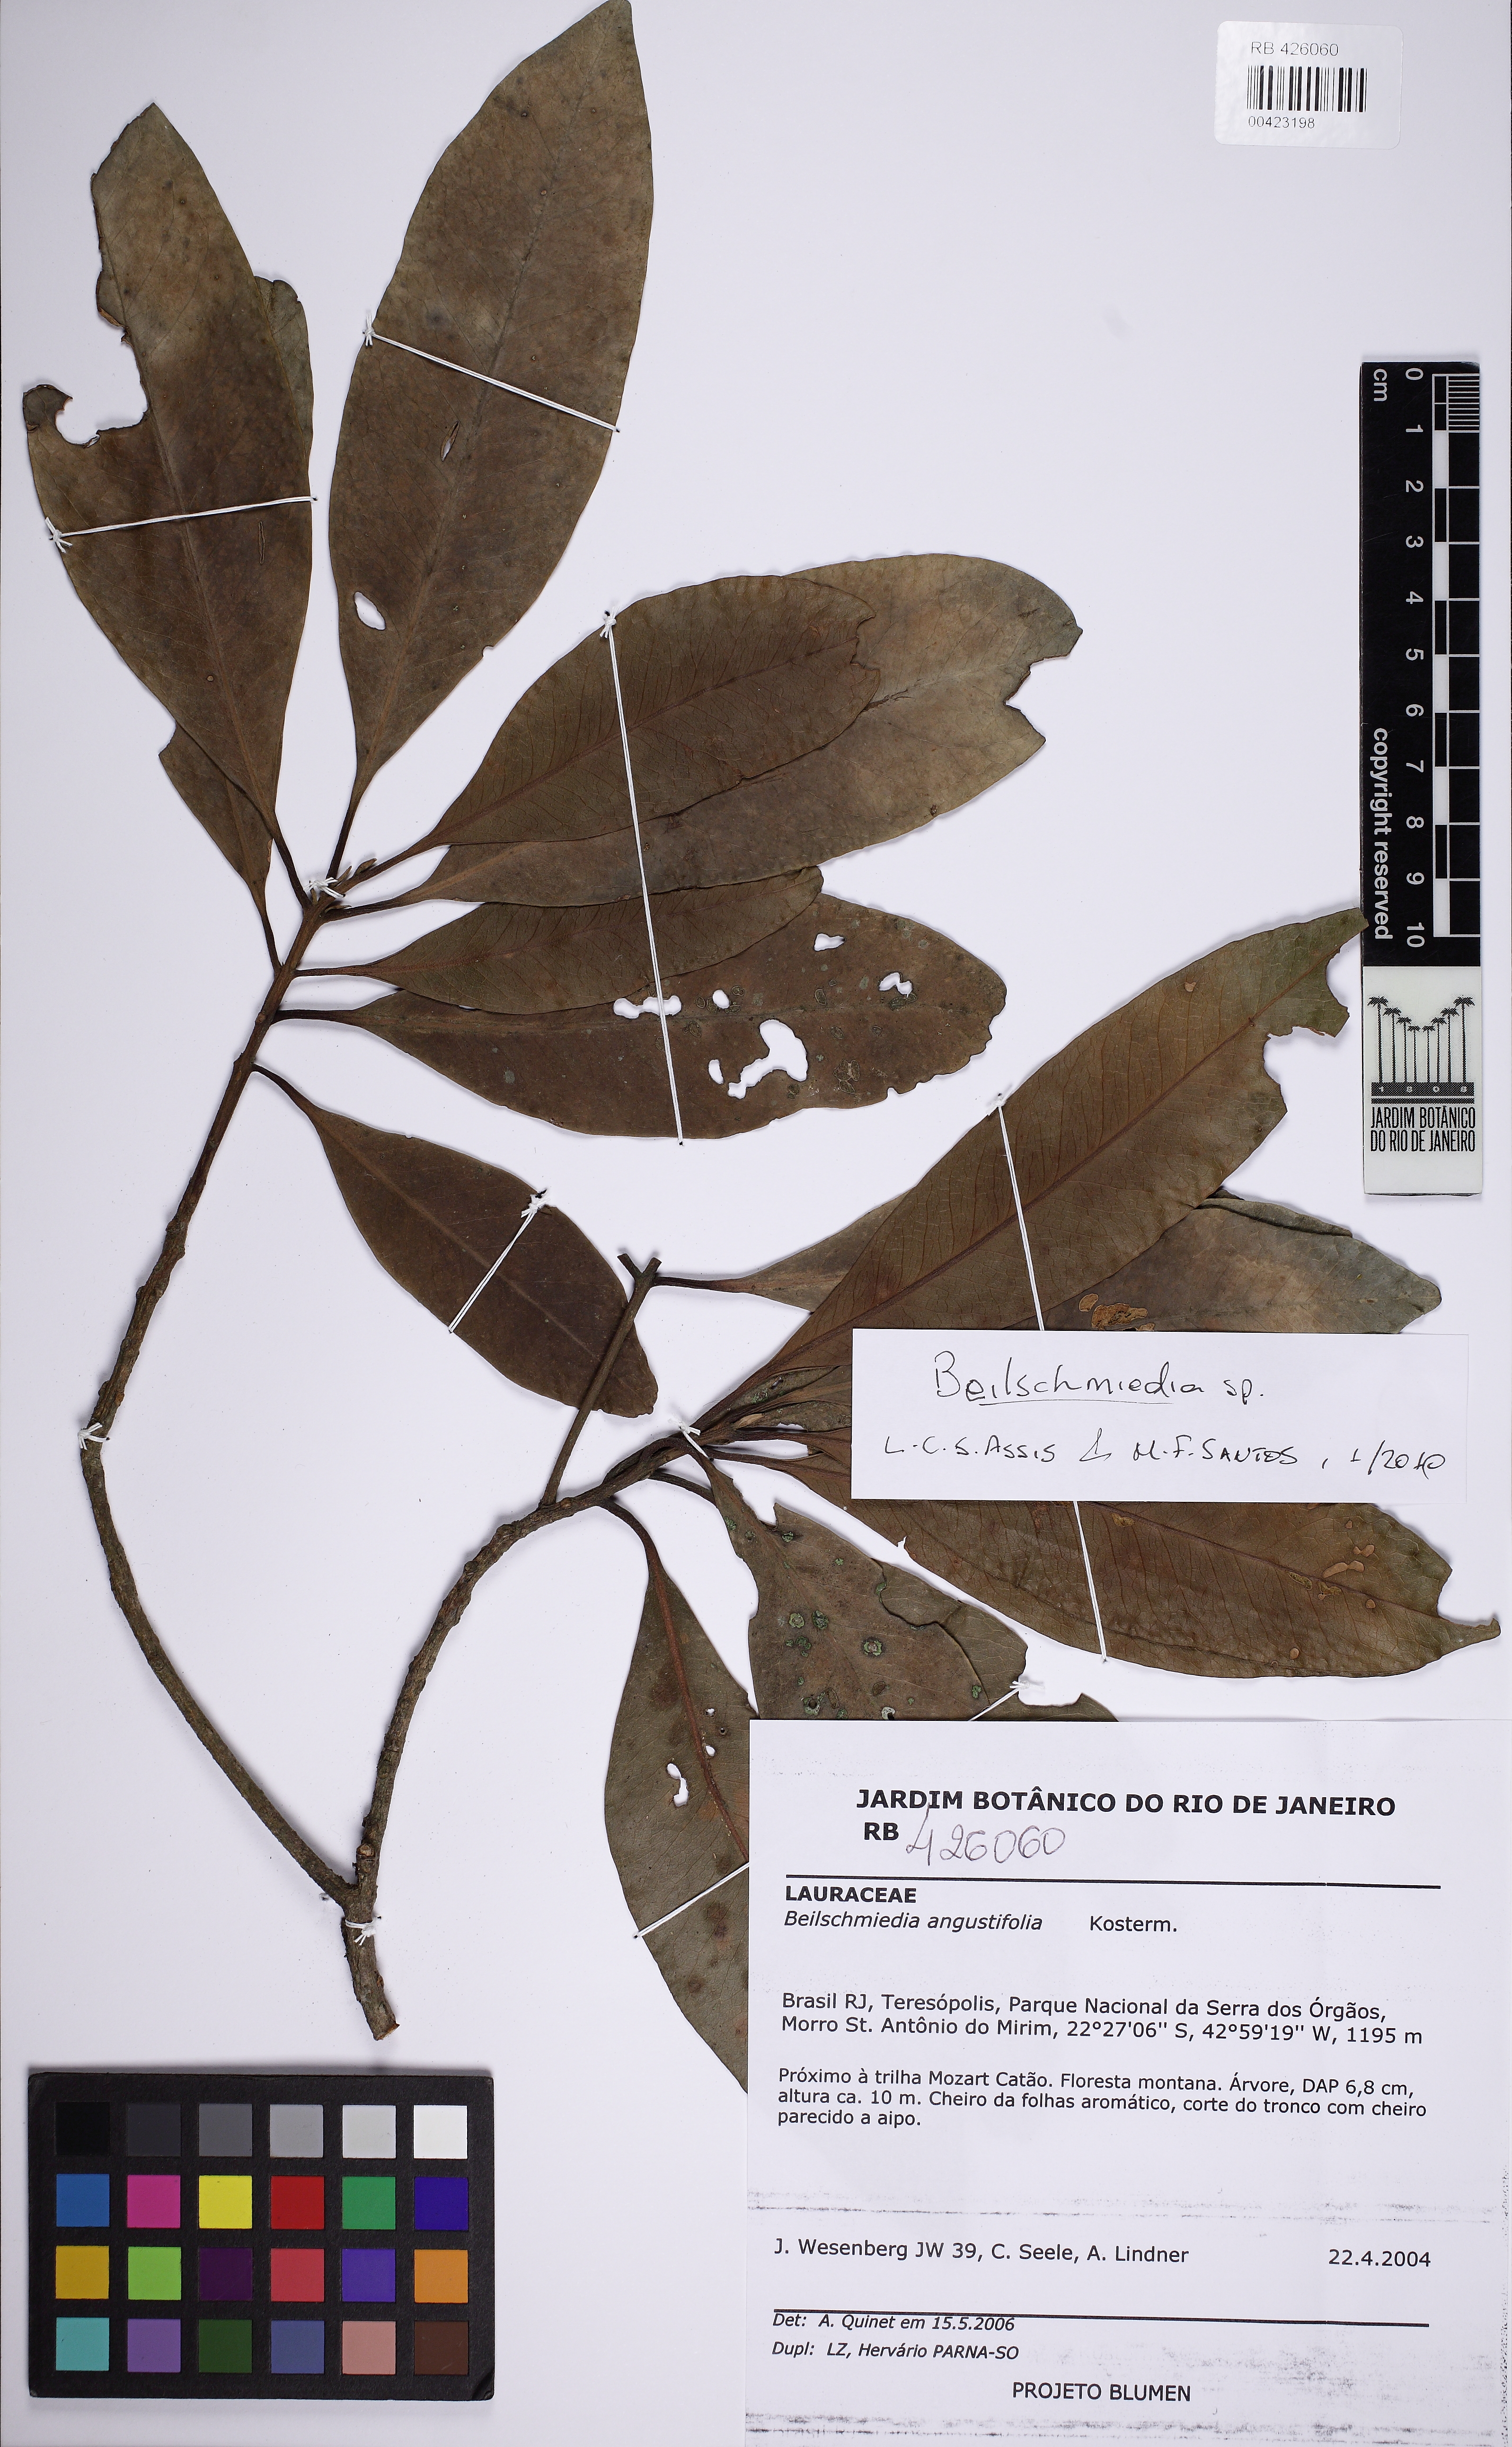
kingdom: Plantae
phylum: Tracheophyta
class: Magnoliopsida
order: Laurales
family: Lauraceae
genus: Beilschmiedia
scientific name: Beilschmiedia
